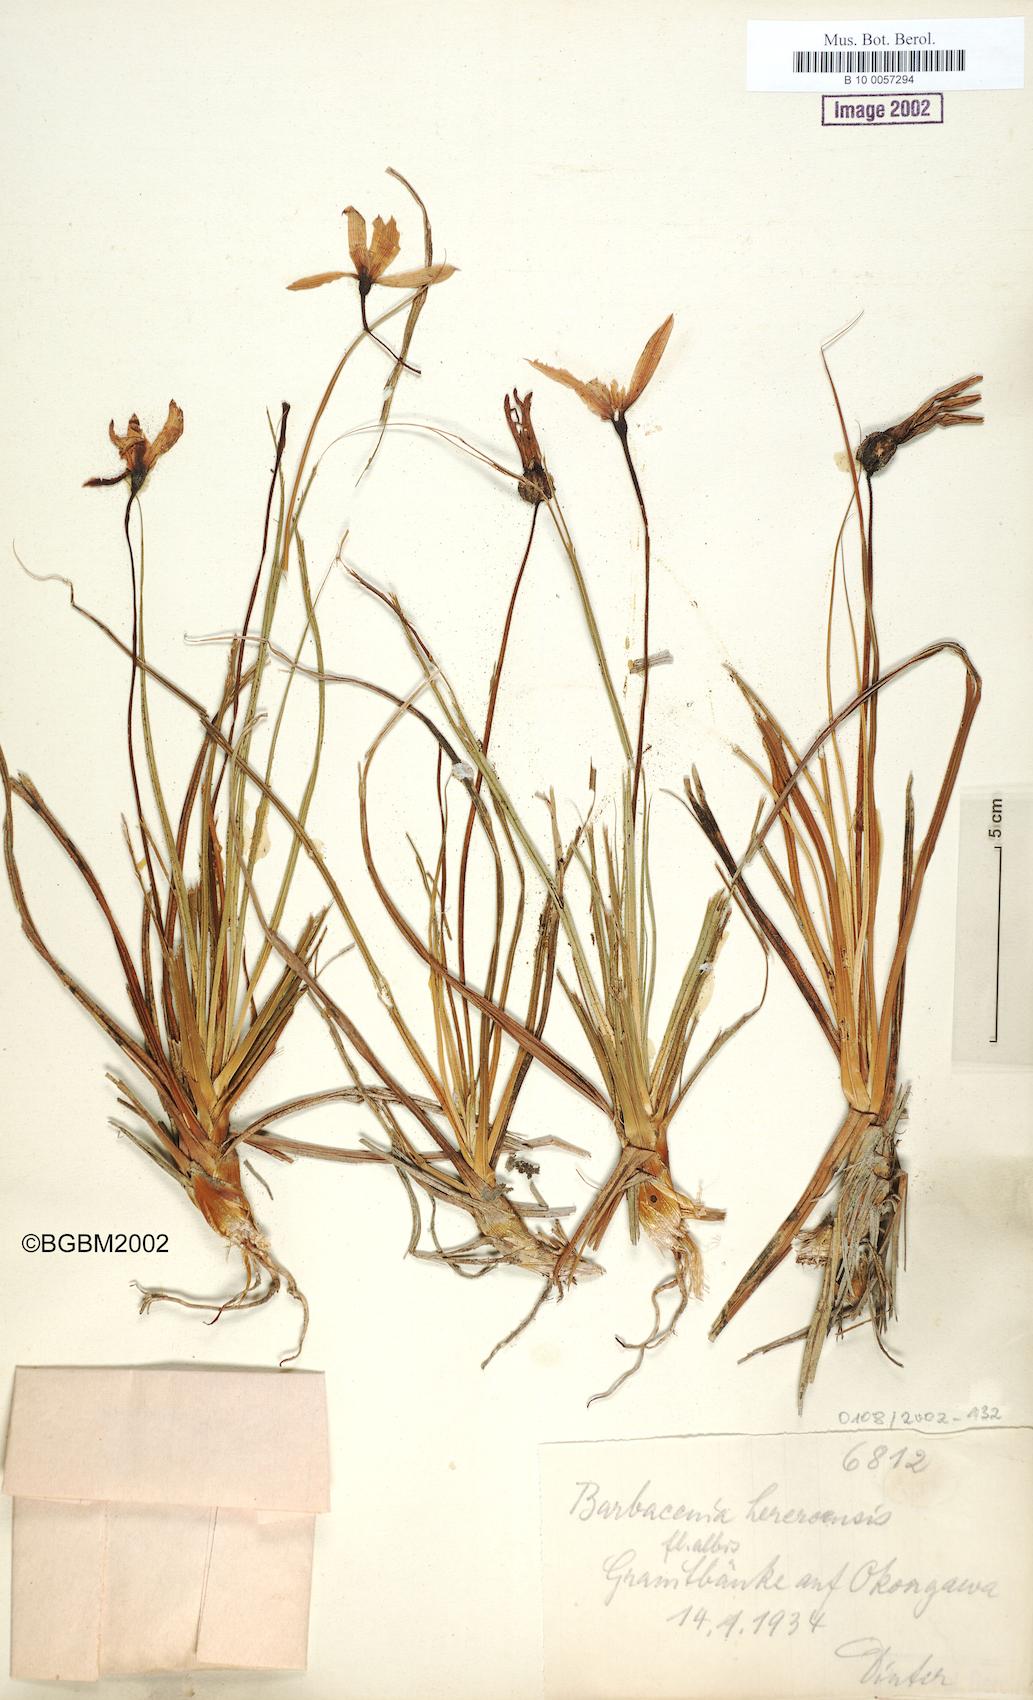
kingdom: Plantae
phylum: Tracheophyta
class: Liliopsida
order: Pandanales
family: Velloziaceae
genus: Xerophyta
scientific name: Xerophyta rosea
